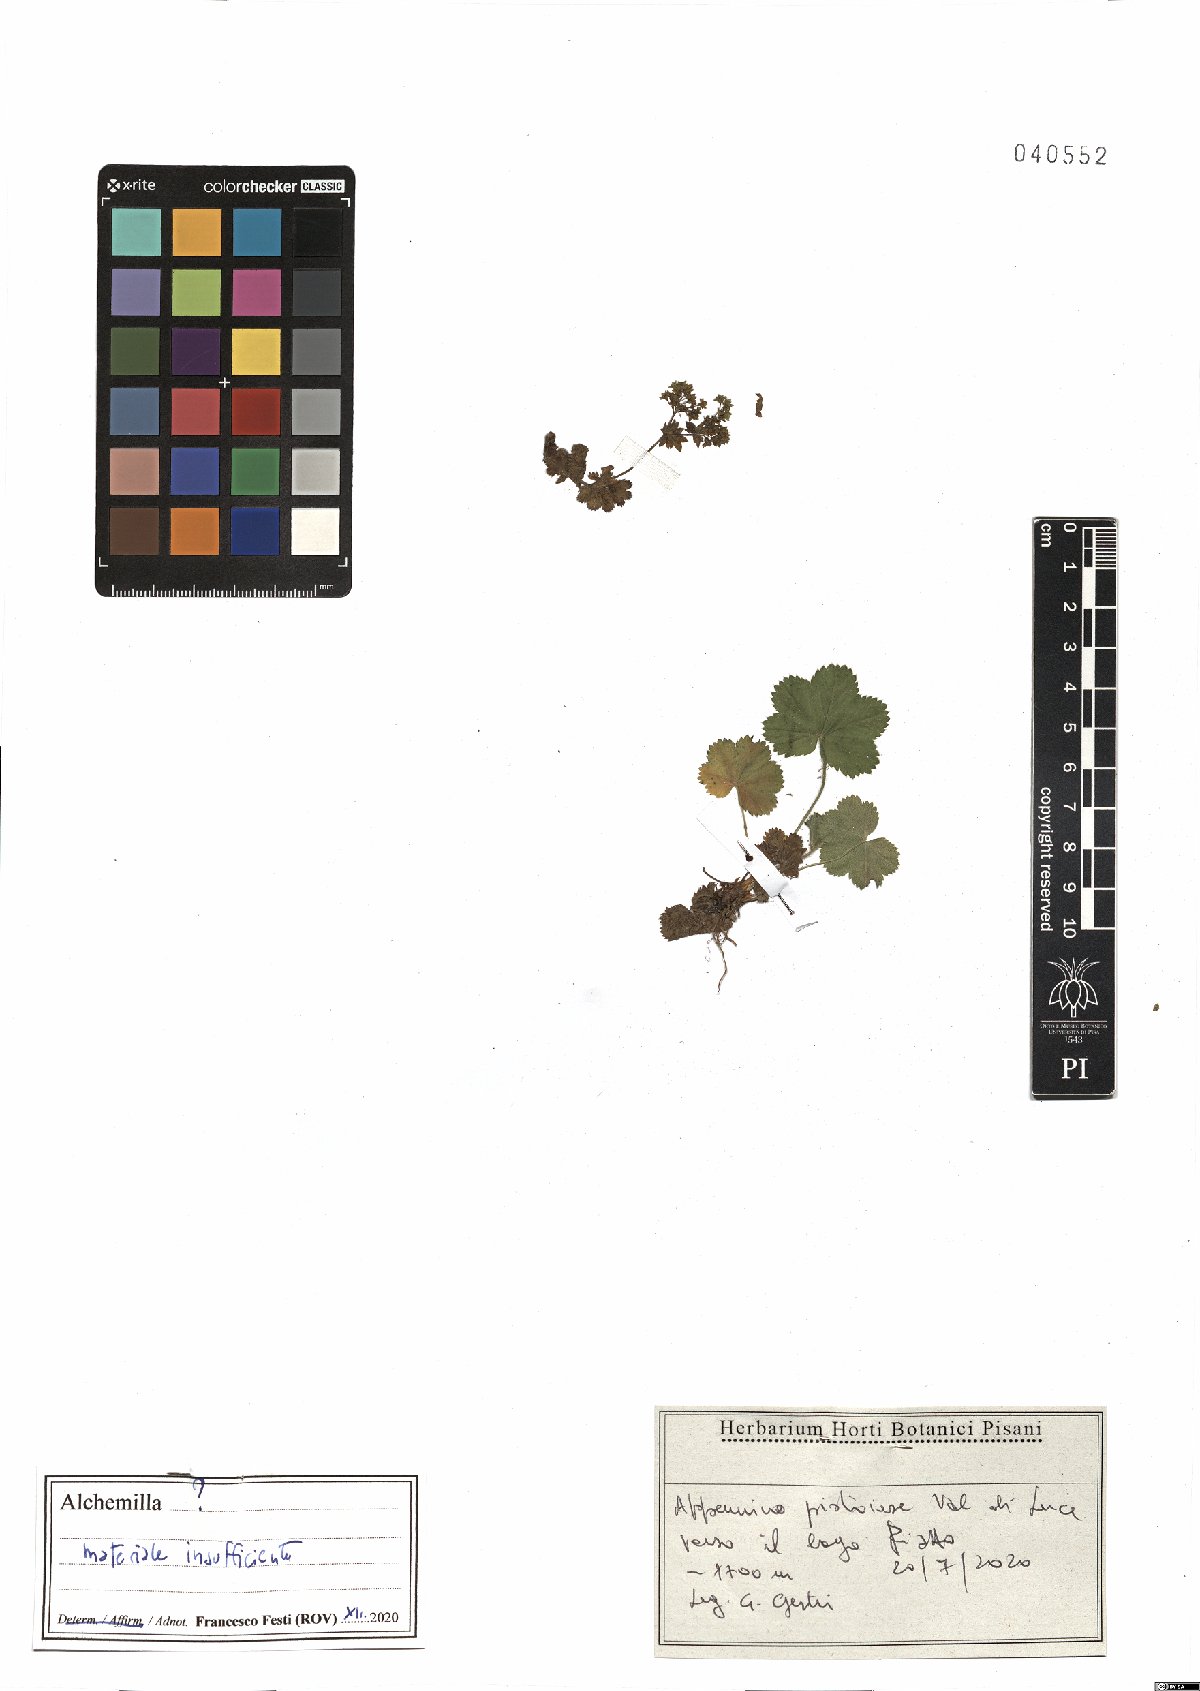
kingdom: Plantae
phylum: Tracheophyta
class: Magnoliopsida
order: Rosales
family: Rosaceae
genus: Alchemilla
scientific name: Alchemilla
